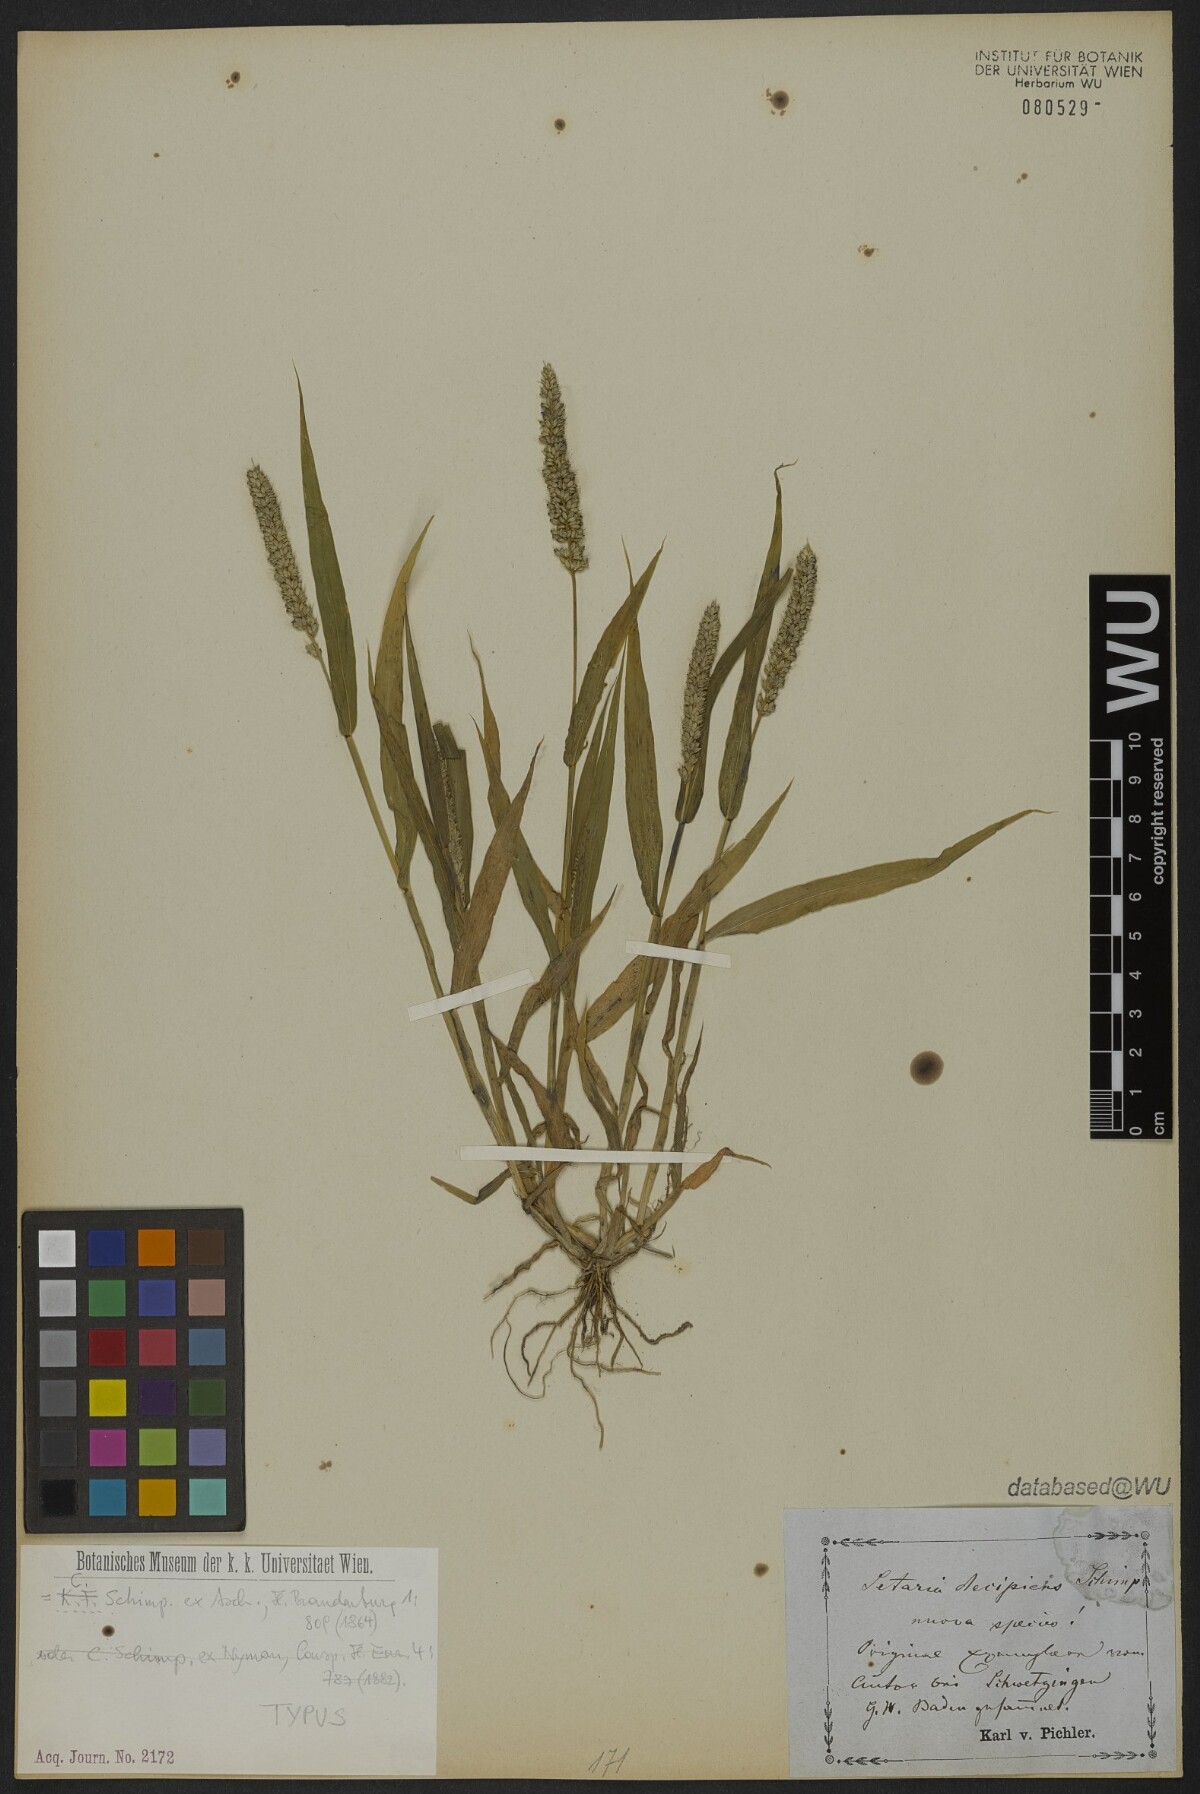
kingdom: Plantae
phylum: Tracheophyta
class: Liliopsida
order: Poales
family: Poaceae
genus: Setaria
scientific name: Setaria verticillata
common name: Hooked bristlegrass
